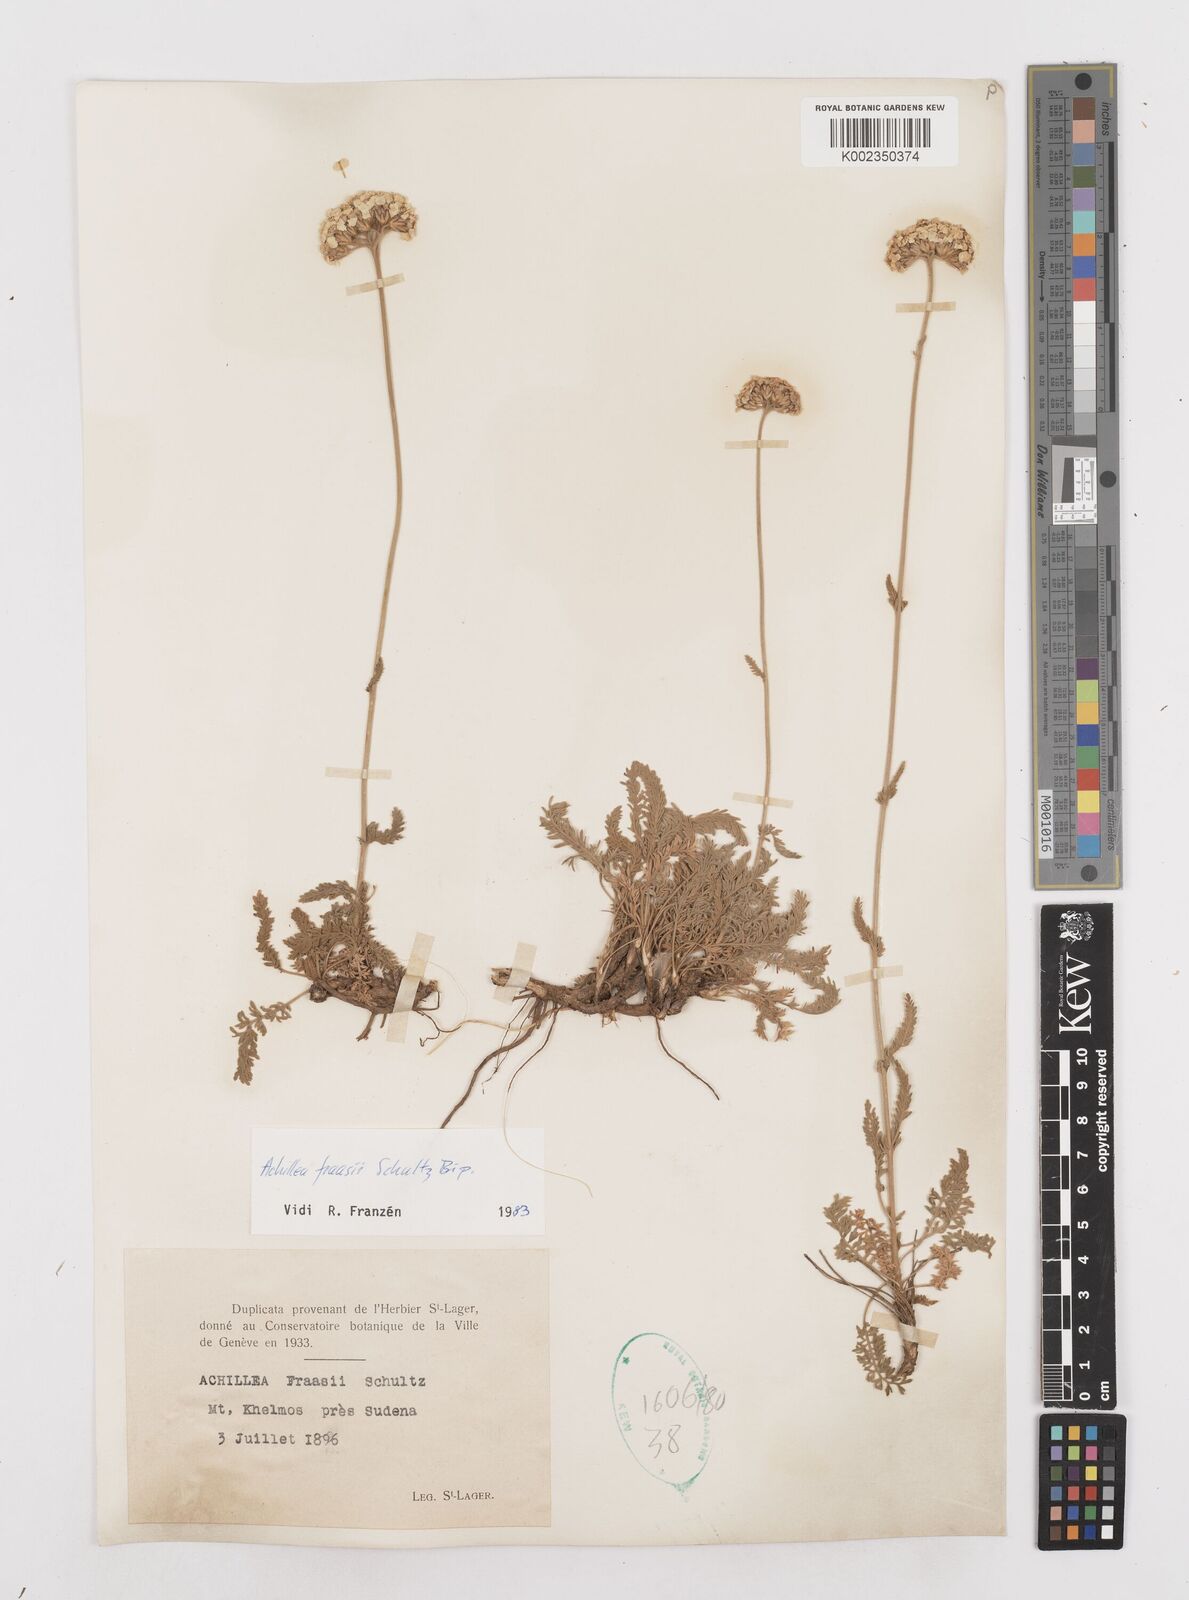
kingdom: Plantae
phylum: Tracheophyta
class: Magnoliopsida
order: Asterales
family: Asteraceae
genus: Achillea
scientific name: Achillea fraasii
